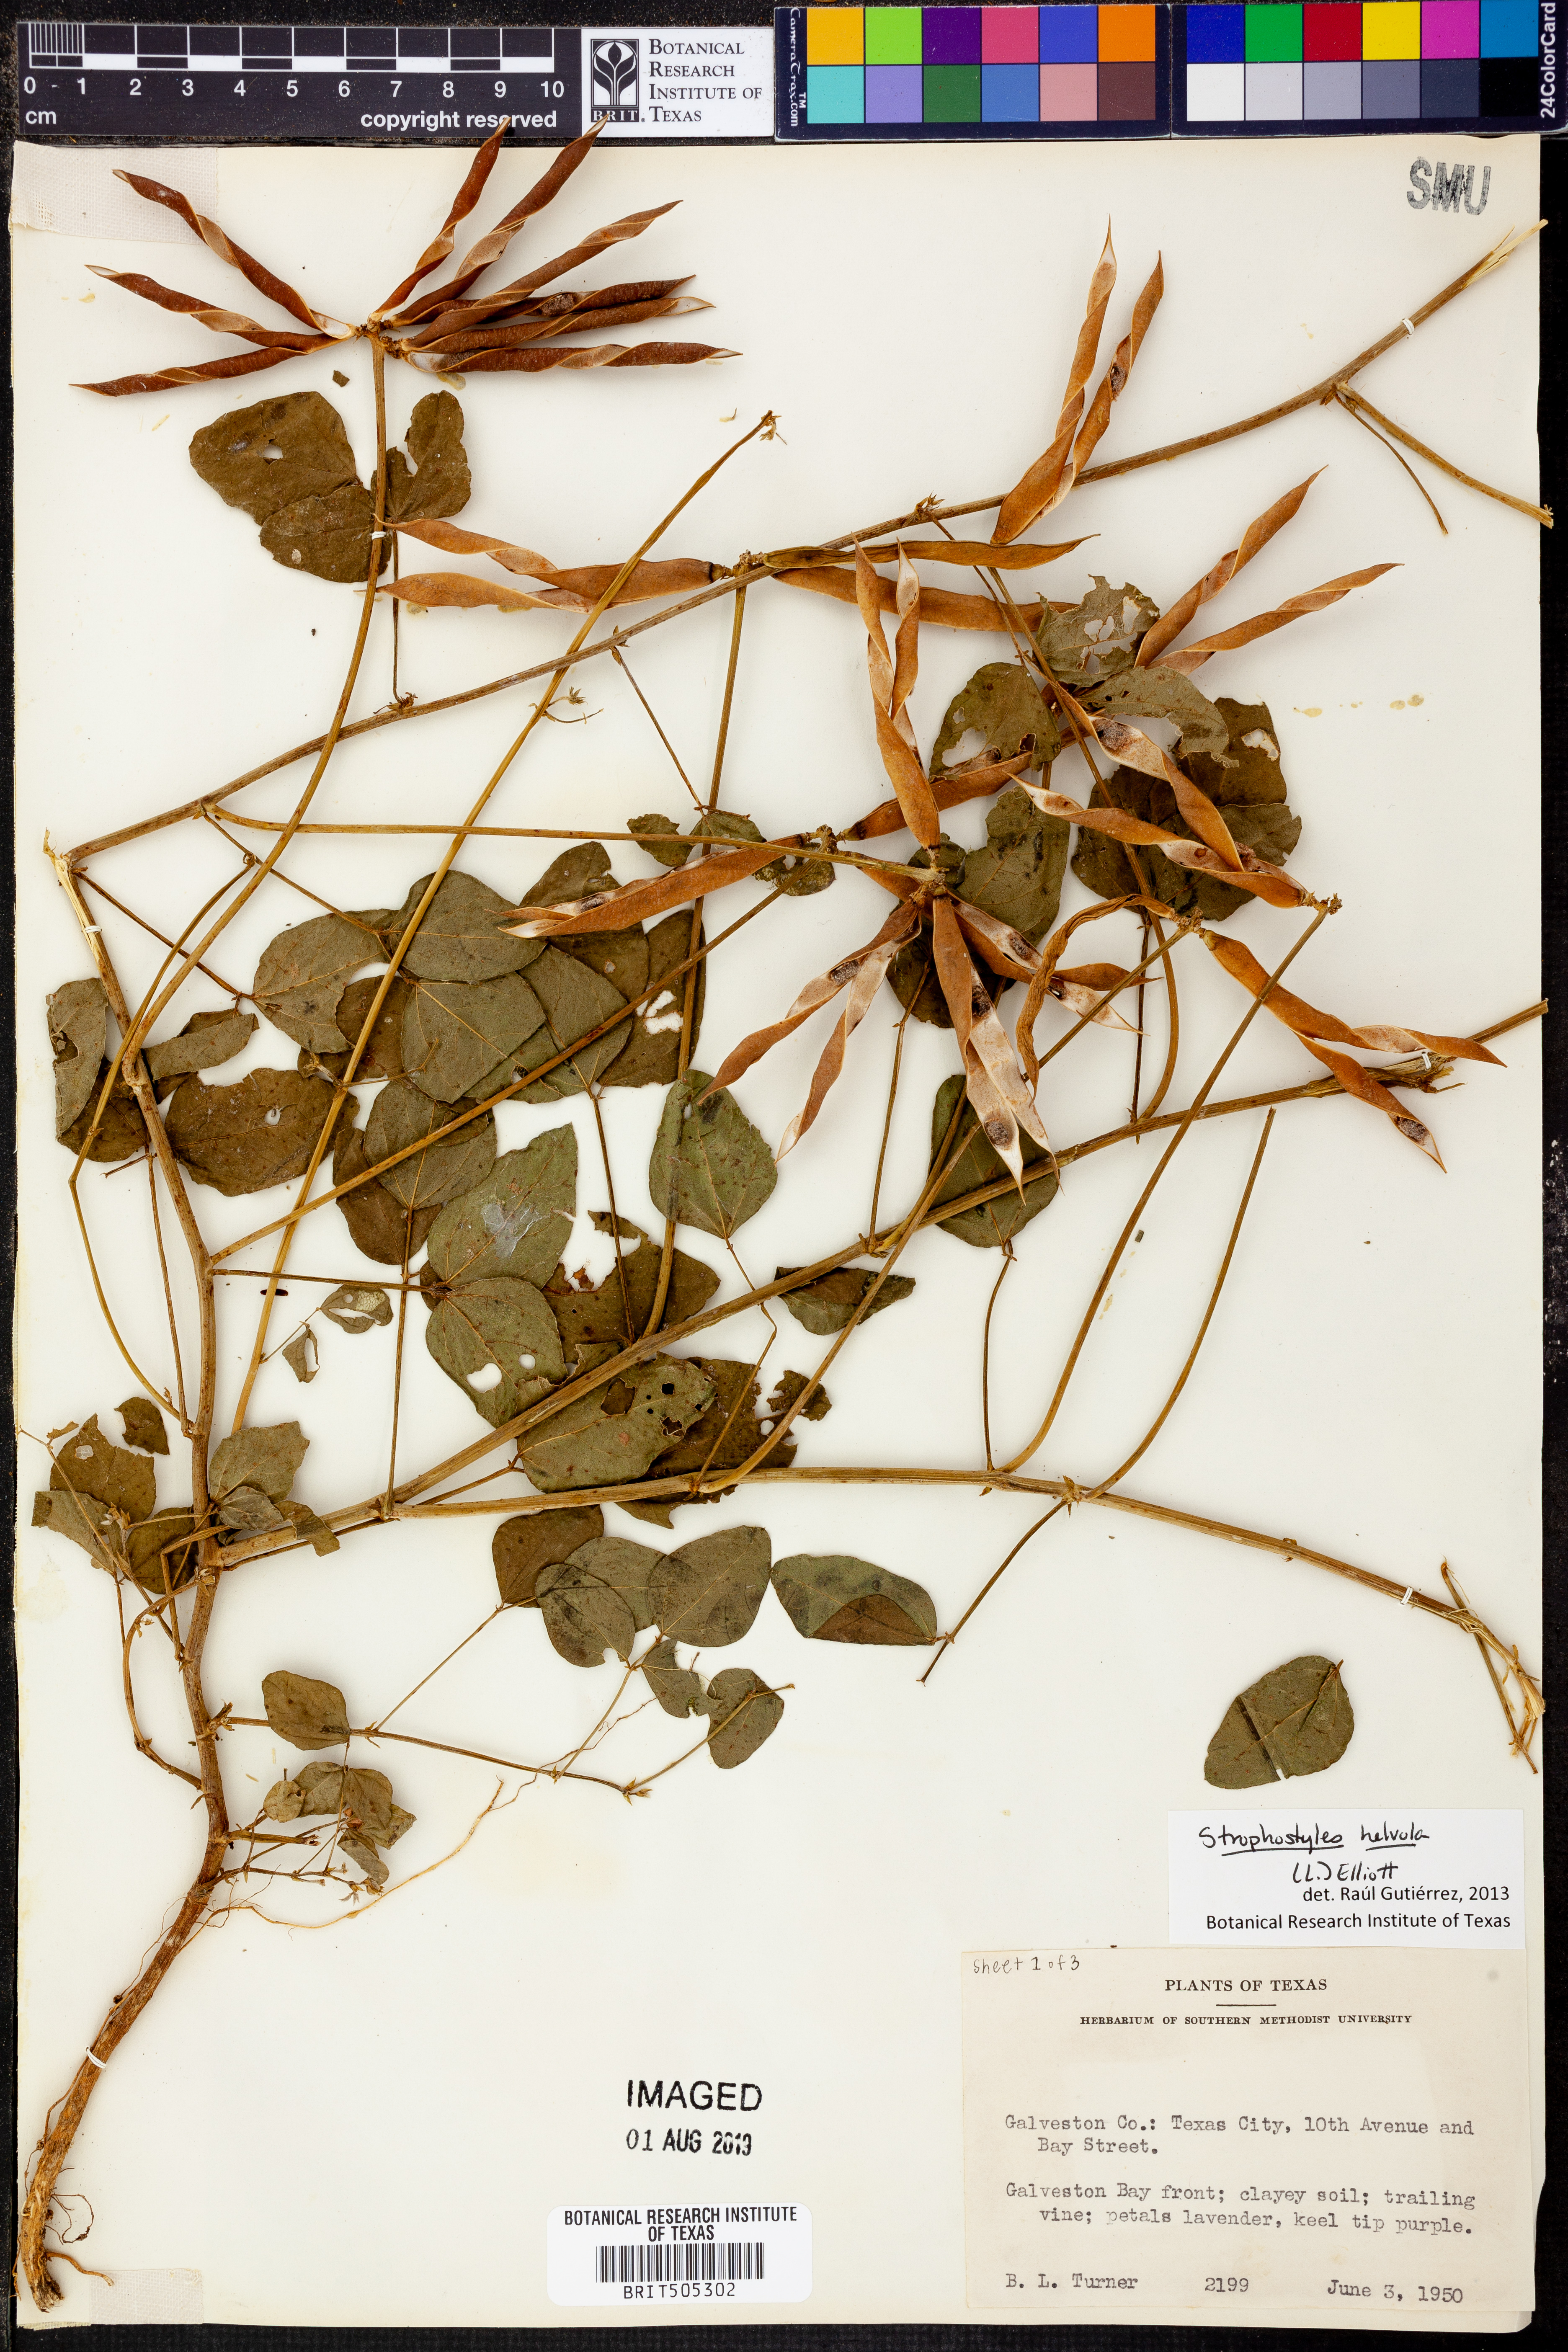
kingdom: Plantae
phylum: Tracheophyta
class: Magnoliopsida
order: Fabales
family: Fabaceae
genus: Strophostyles
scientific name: Strophostyles helvola
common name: Trailing wild bean
